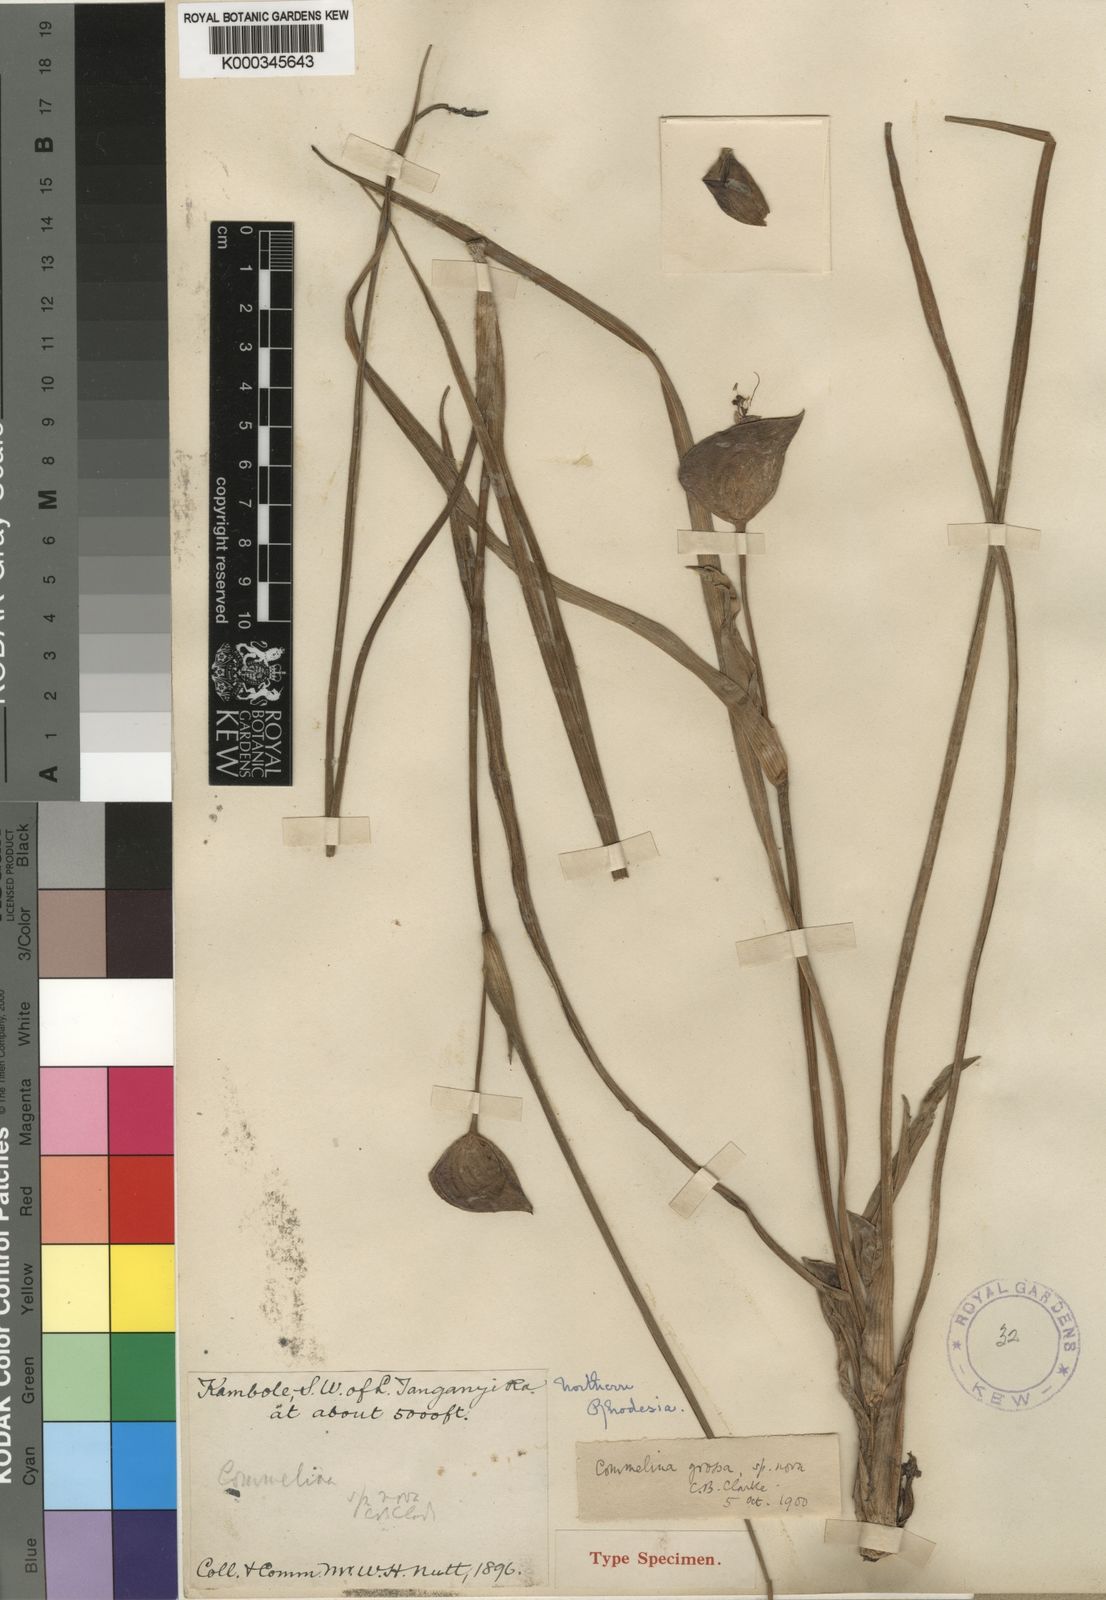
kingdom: Plantae
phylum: Tracheophyta
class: Liliopsida
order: Commelinales
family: Commelinaceae
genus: Commelina
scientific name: Commelina grossa
